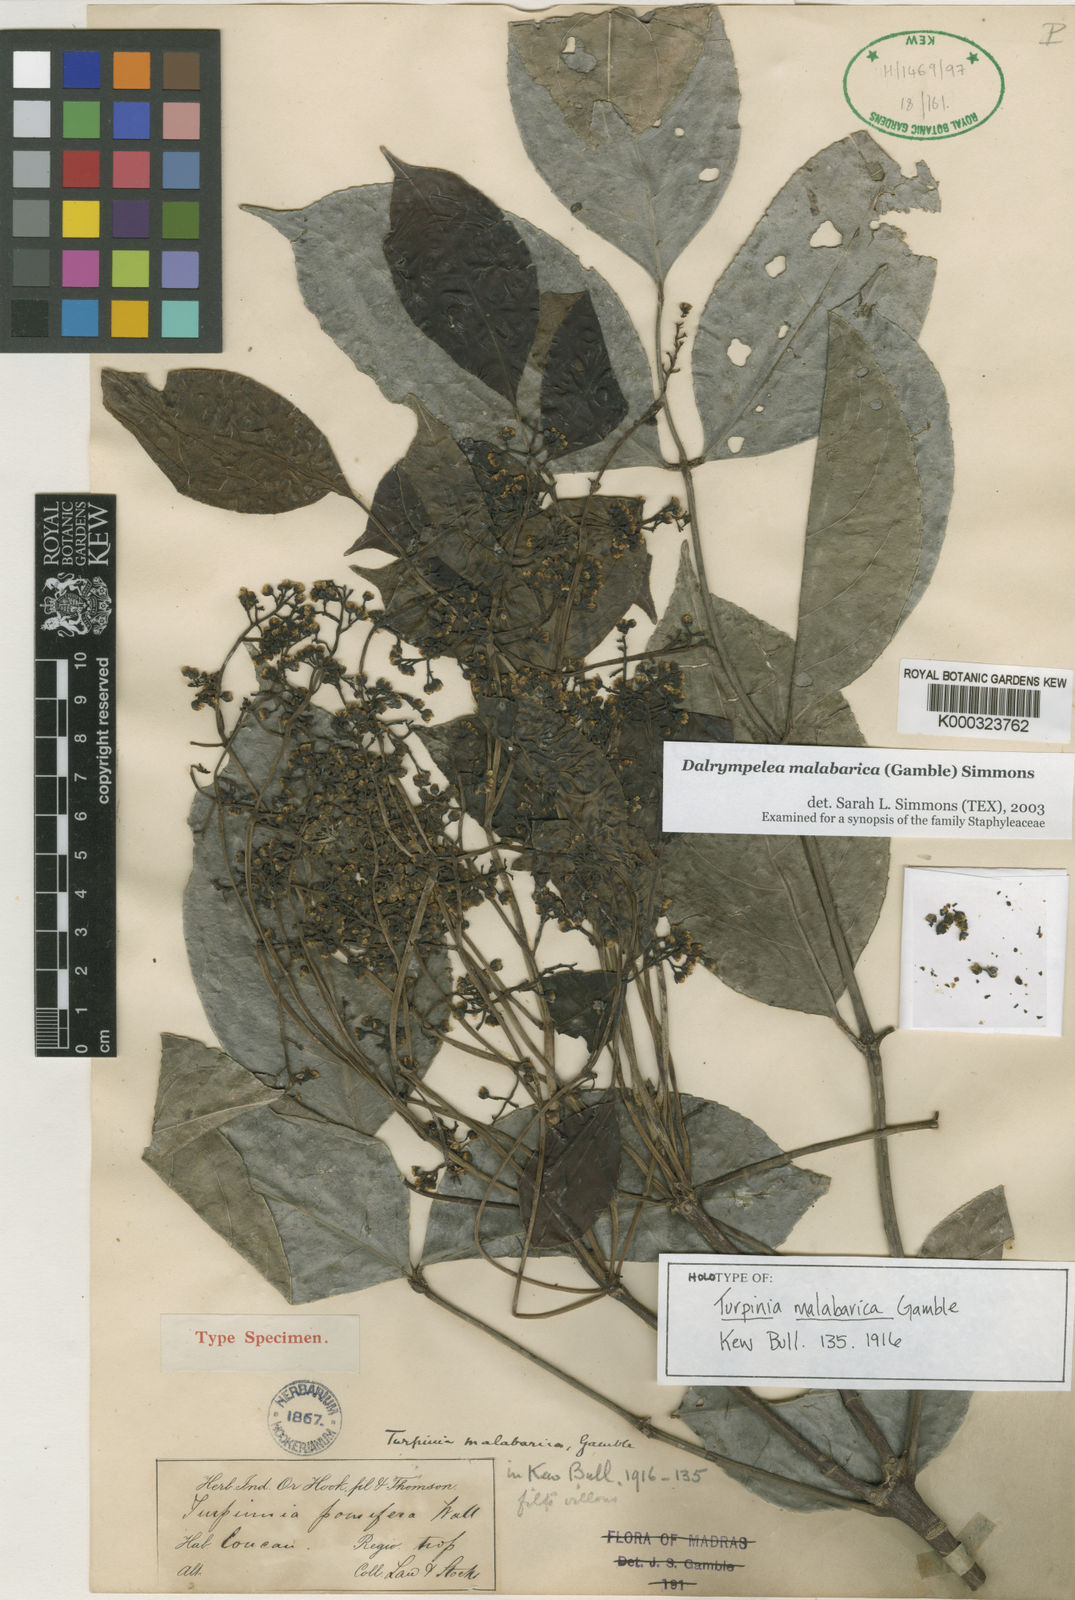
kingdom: Plantae
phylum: Tracheophyta
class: Magnoliopsida
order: Crossosomatales
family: Staphyleaceae
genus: Turpinia
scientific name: Turpinia malabarica
